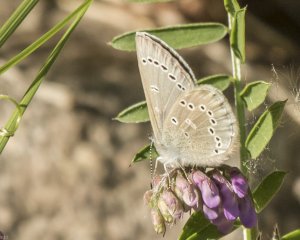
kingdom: Animalia
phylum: Arthropoda
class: Insecta
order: Lepidoptera
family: Lycaenidae
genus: Glaucopsyche
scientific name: Glaucopsyche lygdamus
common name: Silvery Blue
